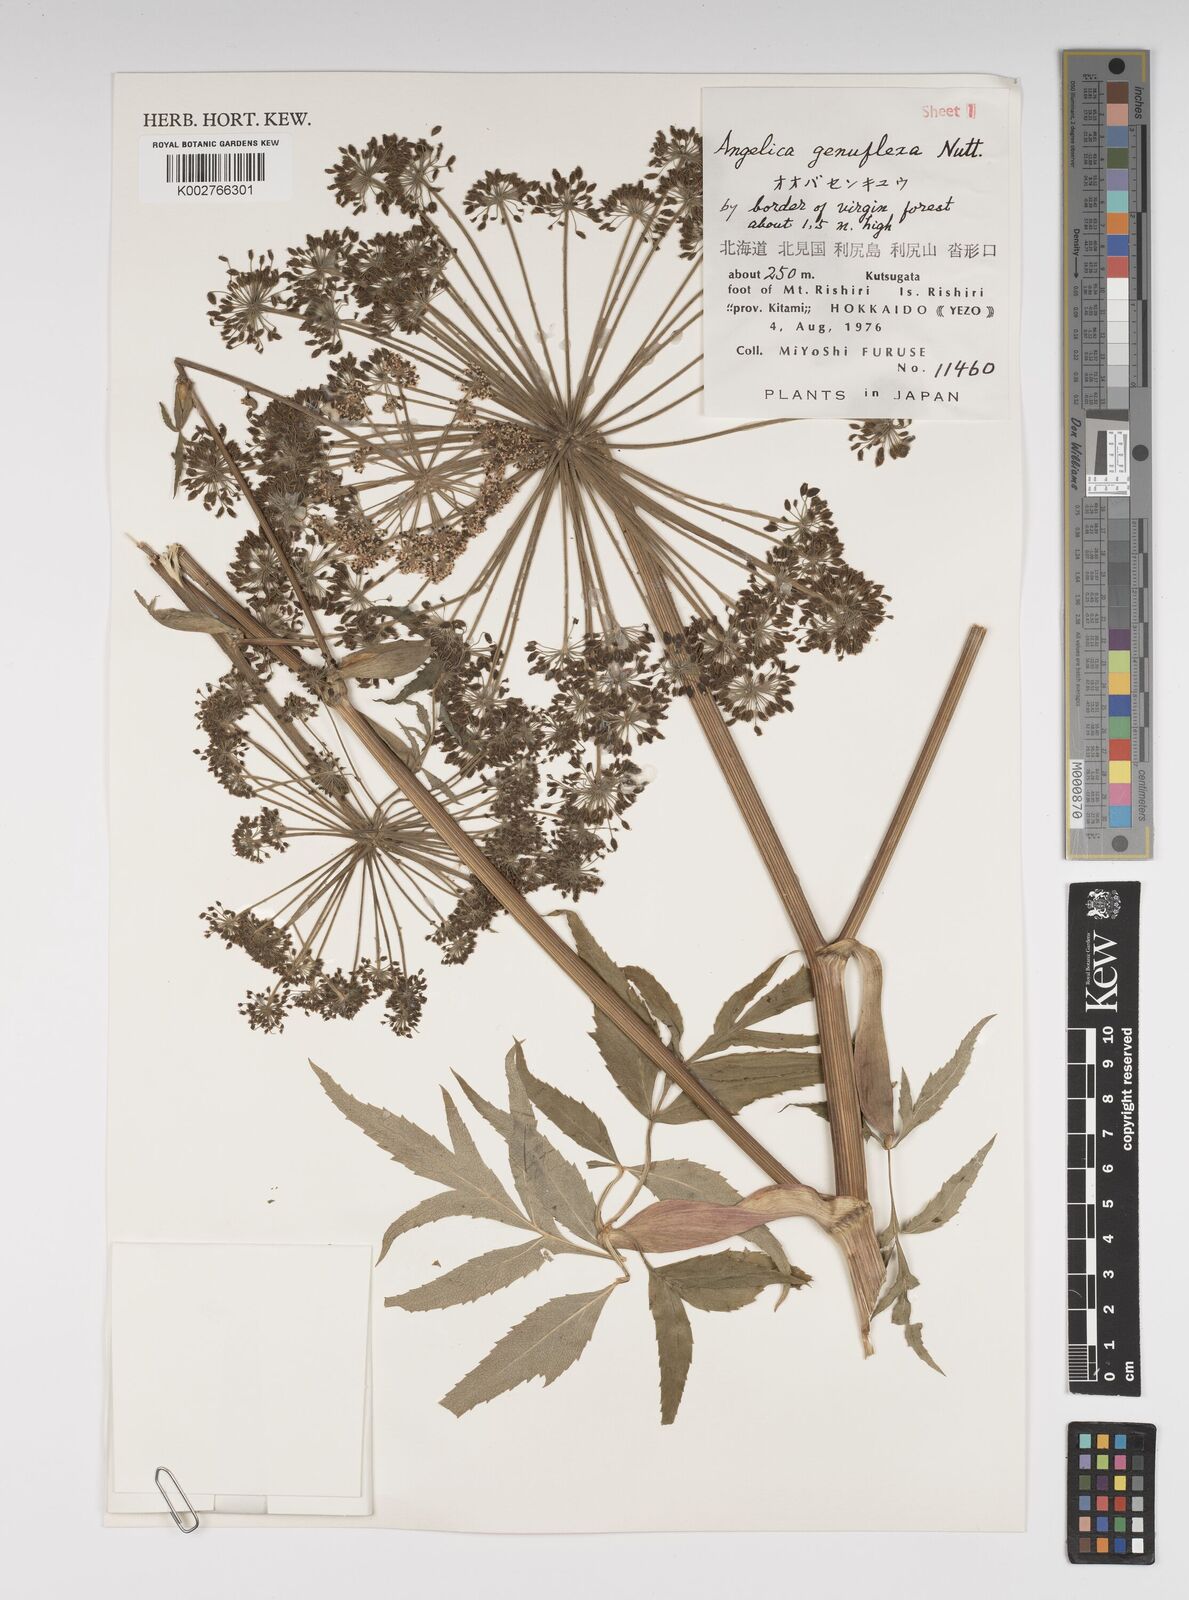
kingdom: Plantae
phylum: Tracheophyta
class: Magnoliopsida
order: Apiales
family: Apiaceae
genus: Angelica
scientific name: Angelica genuflexa
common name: Kneeling angelica
